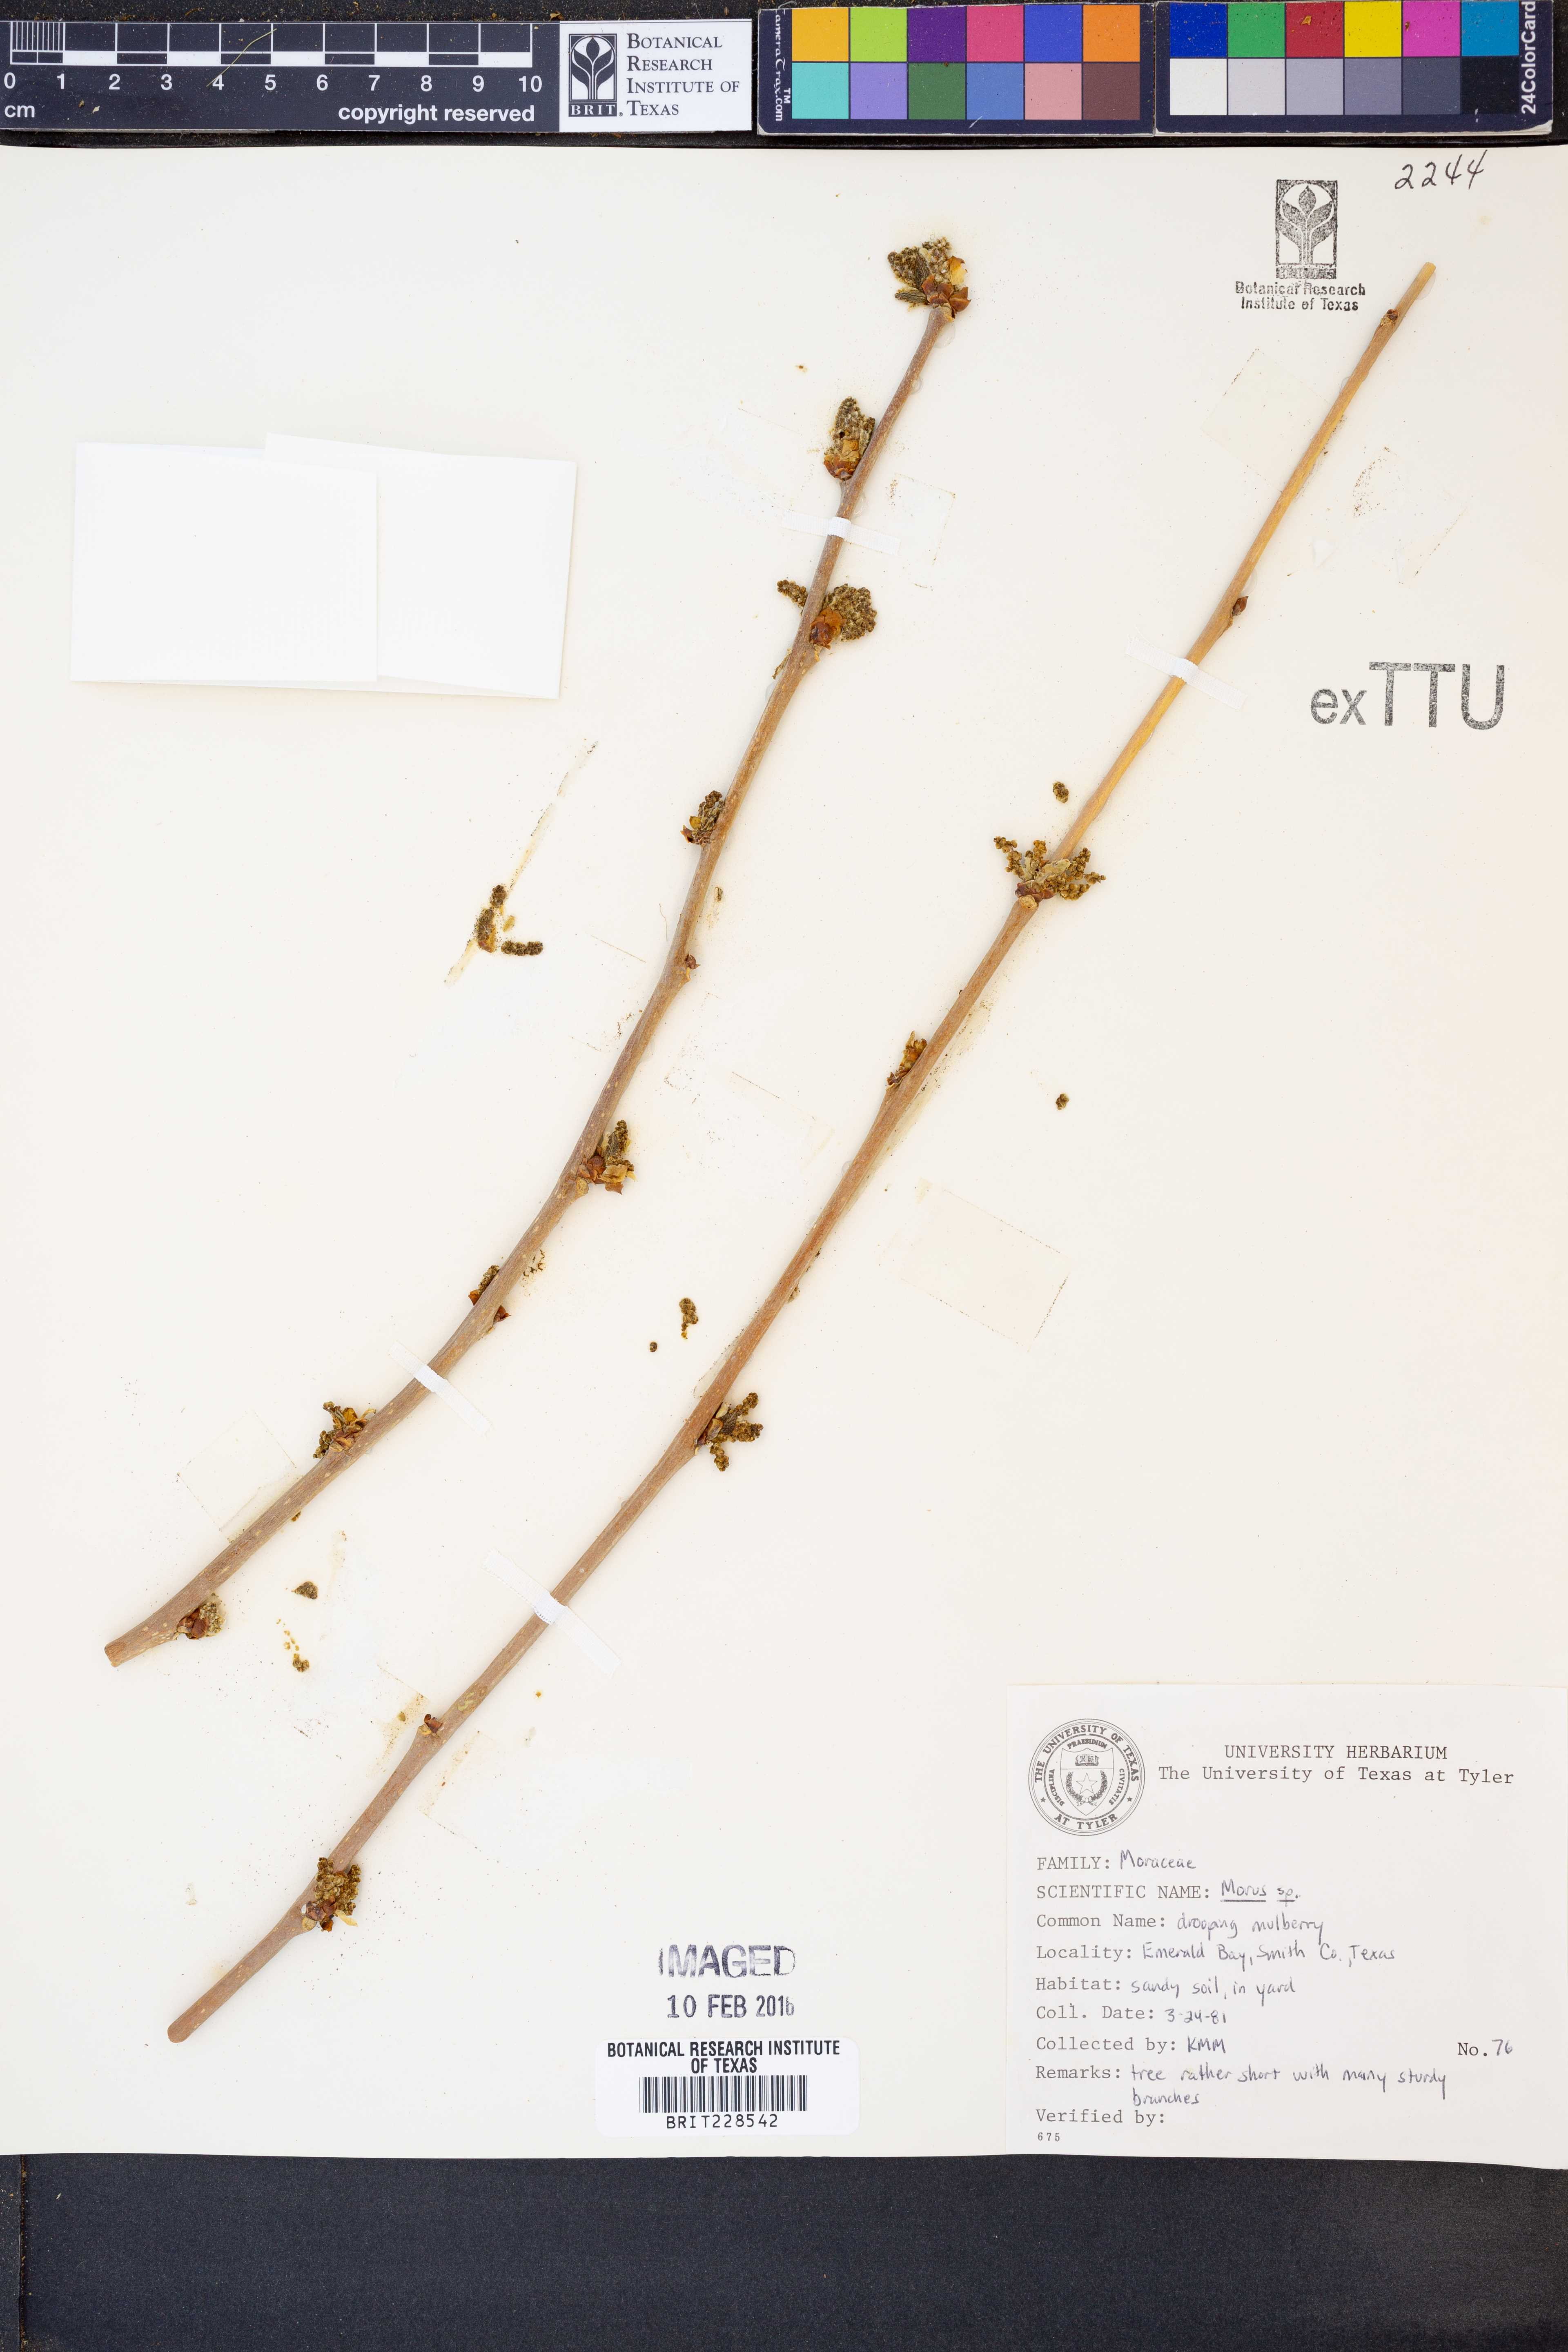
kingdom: Plantae
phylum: Tracheophyta
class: Magnoliopsida
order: Rosales
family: Moraceae
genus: Morus
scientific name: Morus
